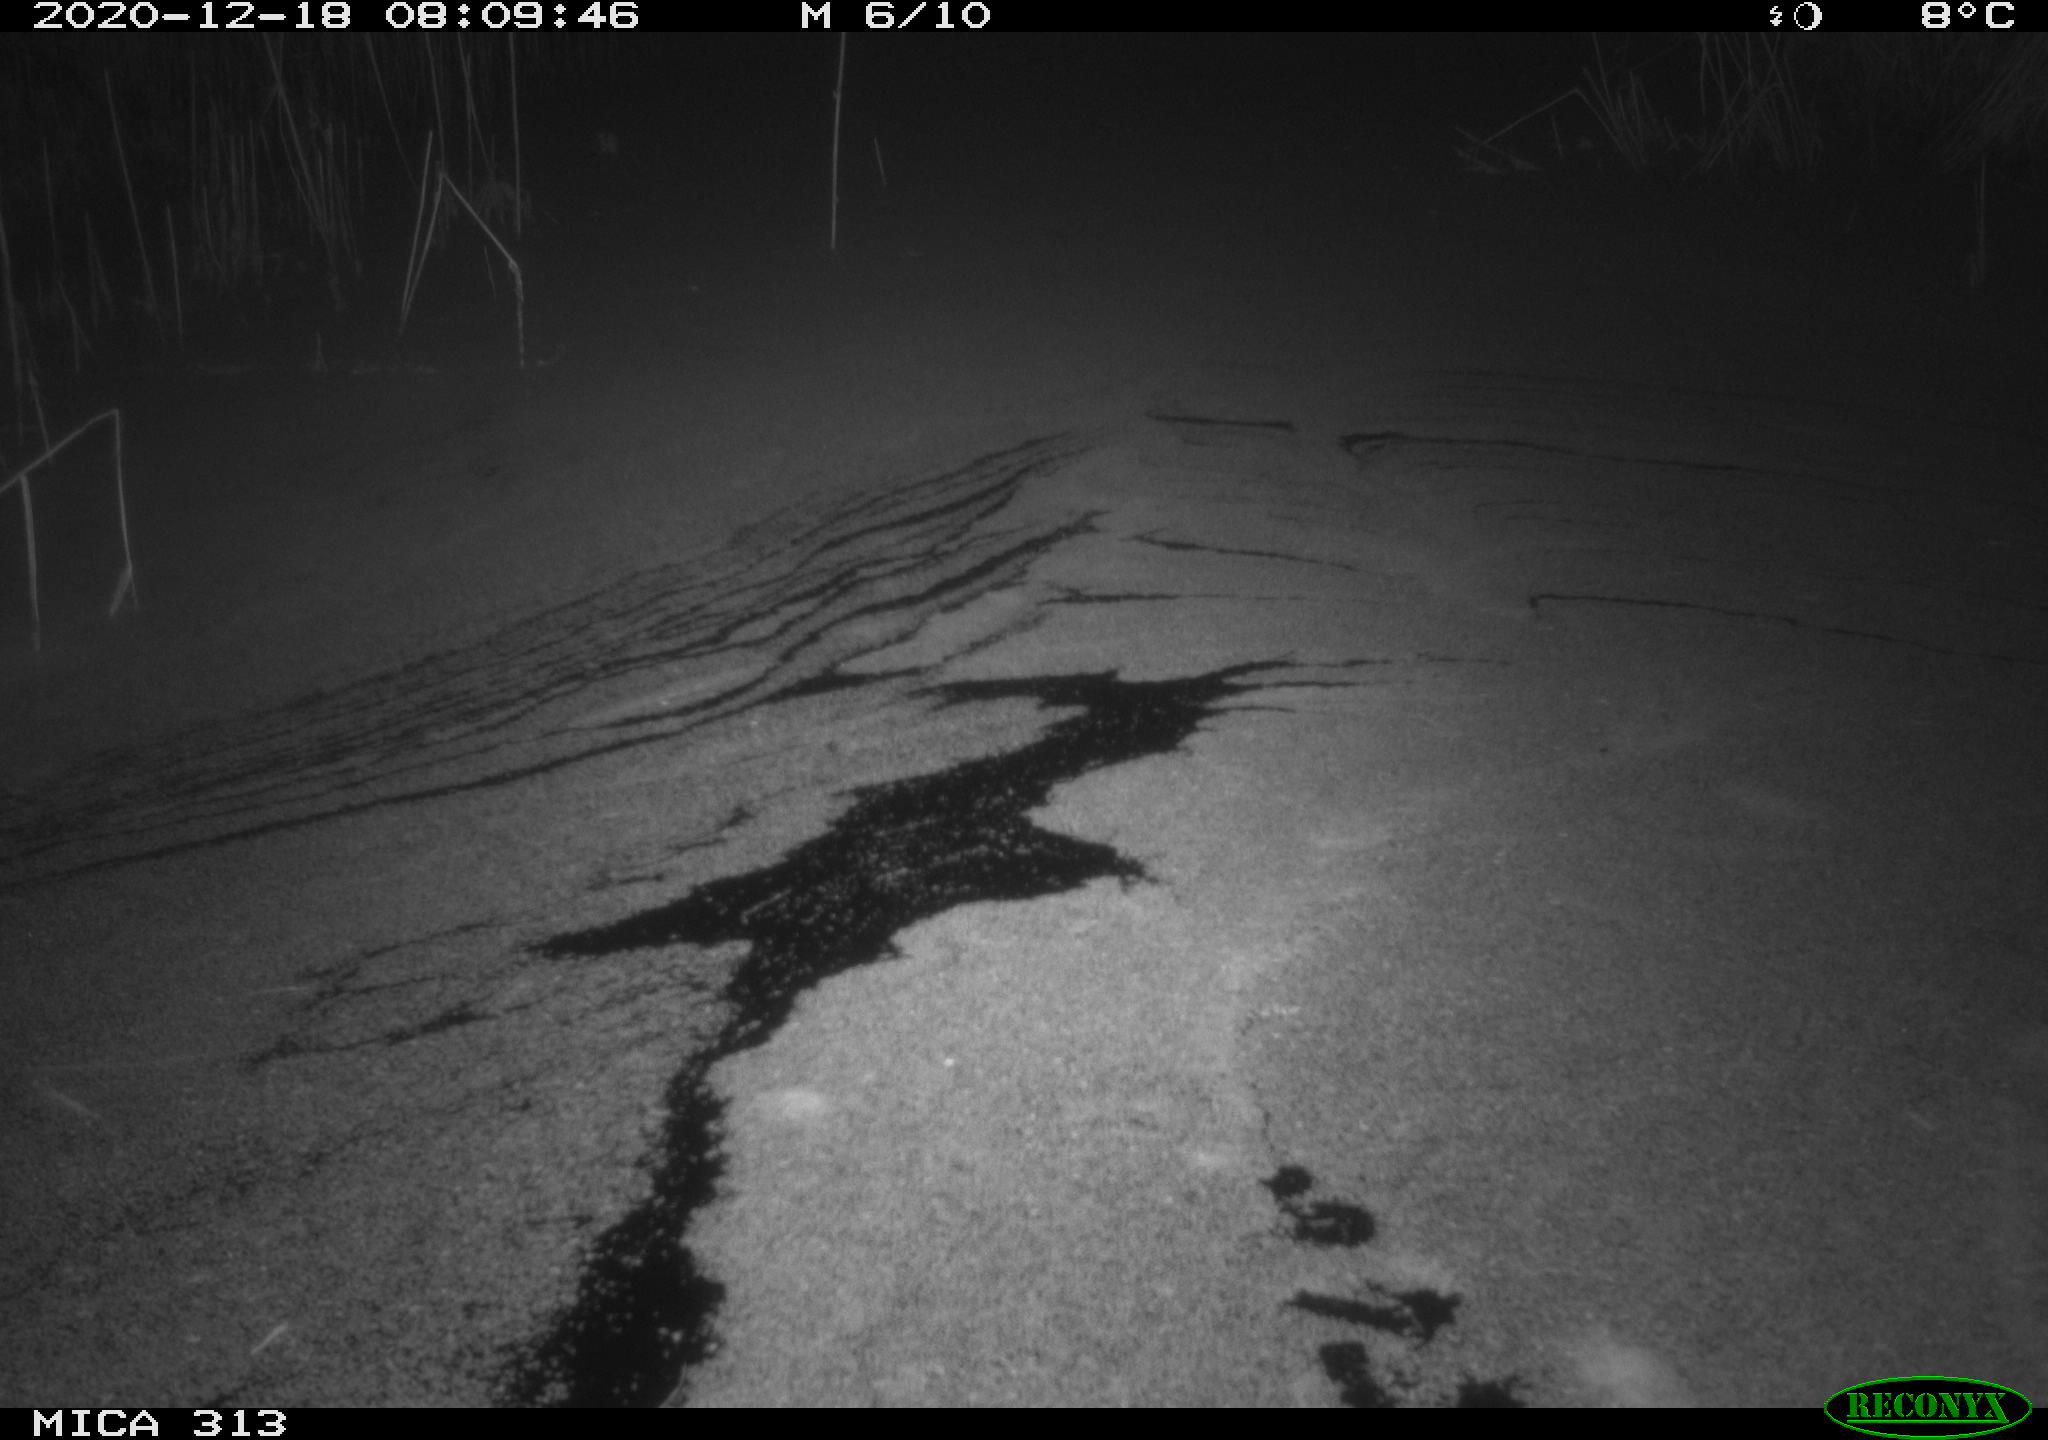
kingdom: Animalia
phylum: Chordata
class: Aves
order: Gruiformes
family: Rallidae
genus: Gallinula
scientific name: Gallinula chloropus
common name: Common moorhen
